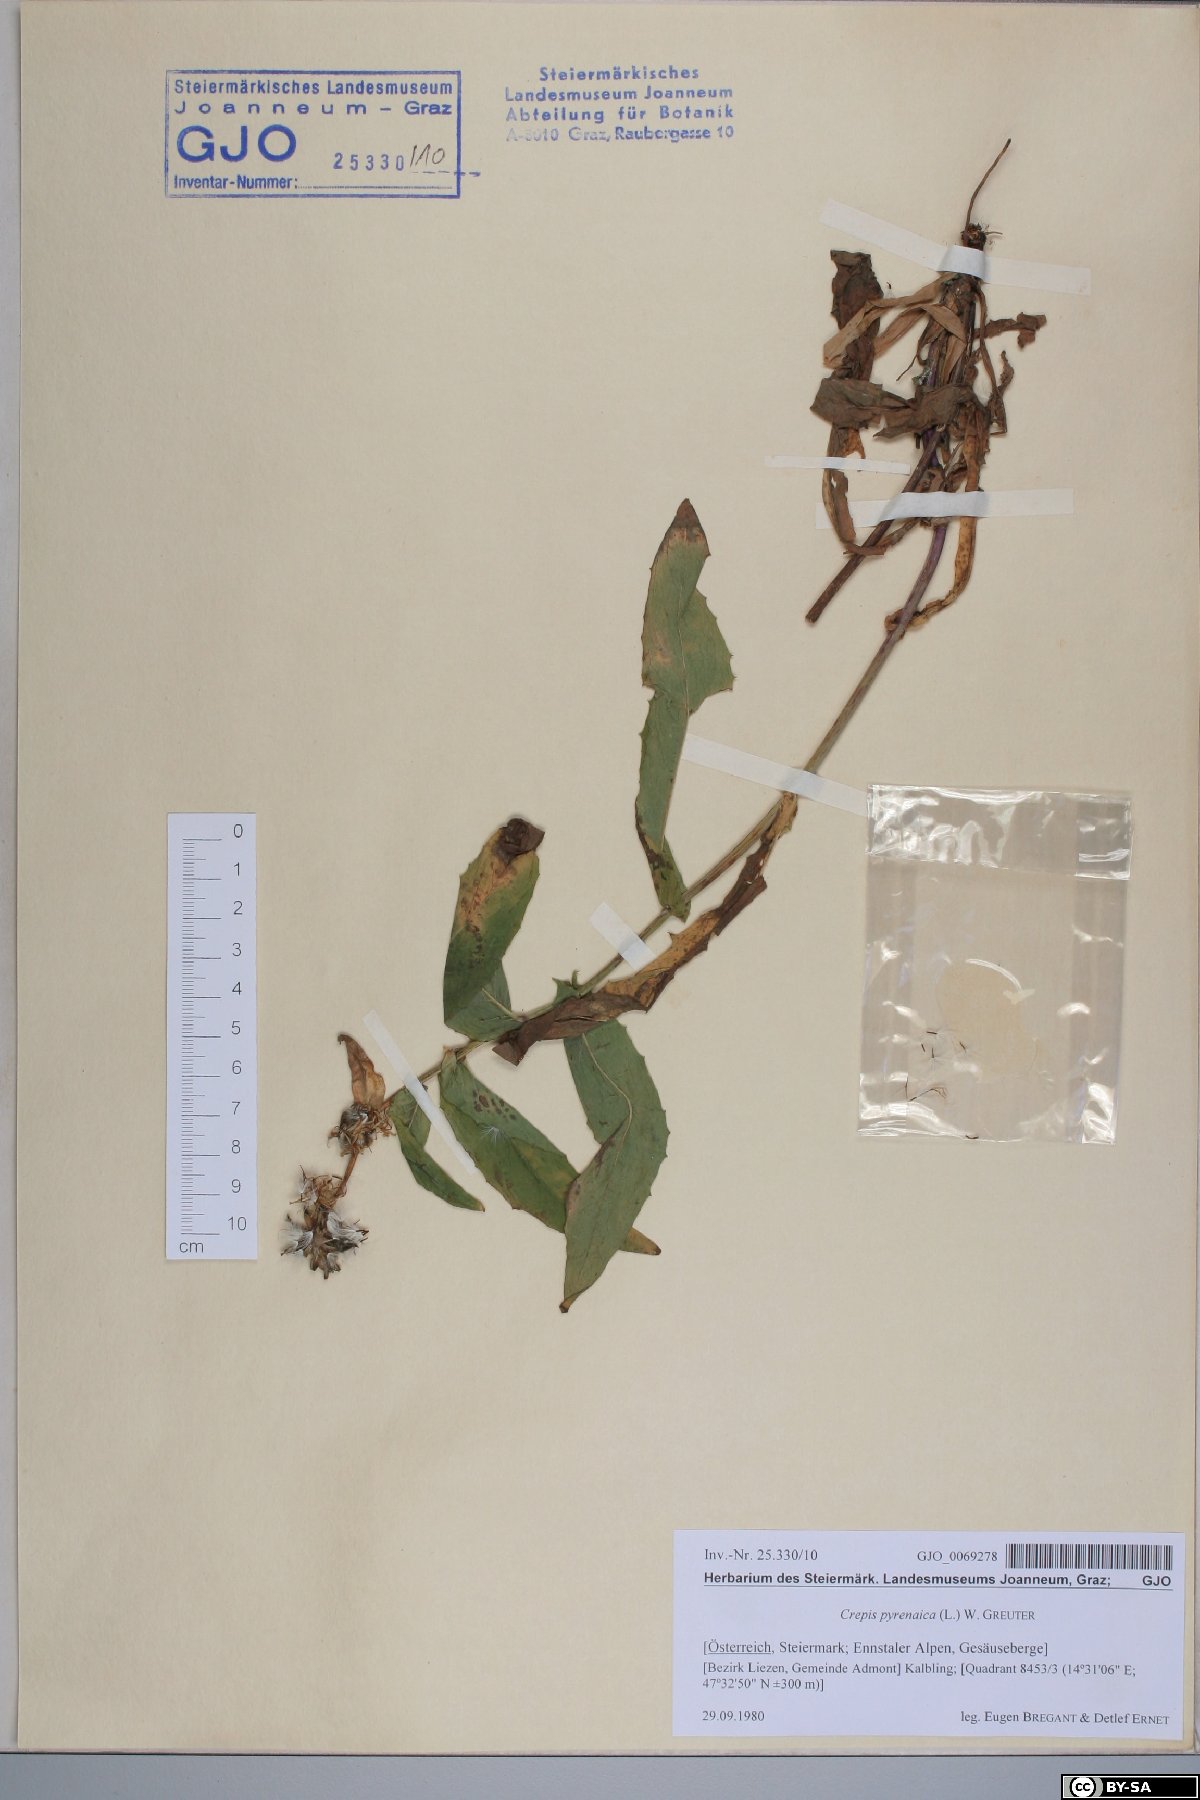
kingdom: Plantae
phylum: Tracheophyta
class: Magnoliopsida
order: Asterales
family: Asteraceae
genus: Crepis
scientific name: Crepis pyrenaica
